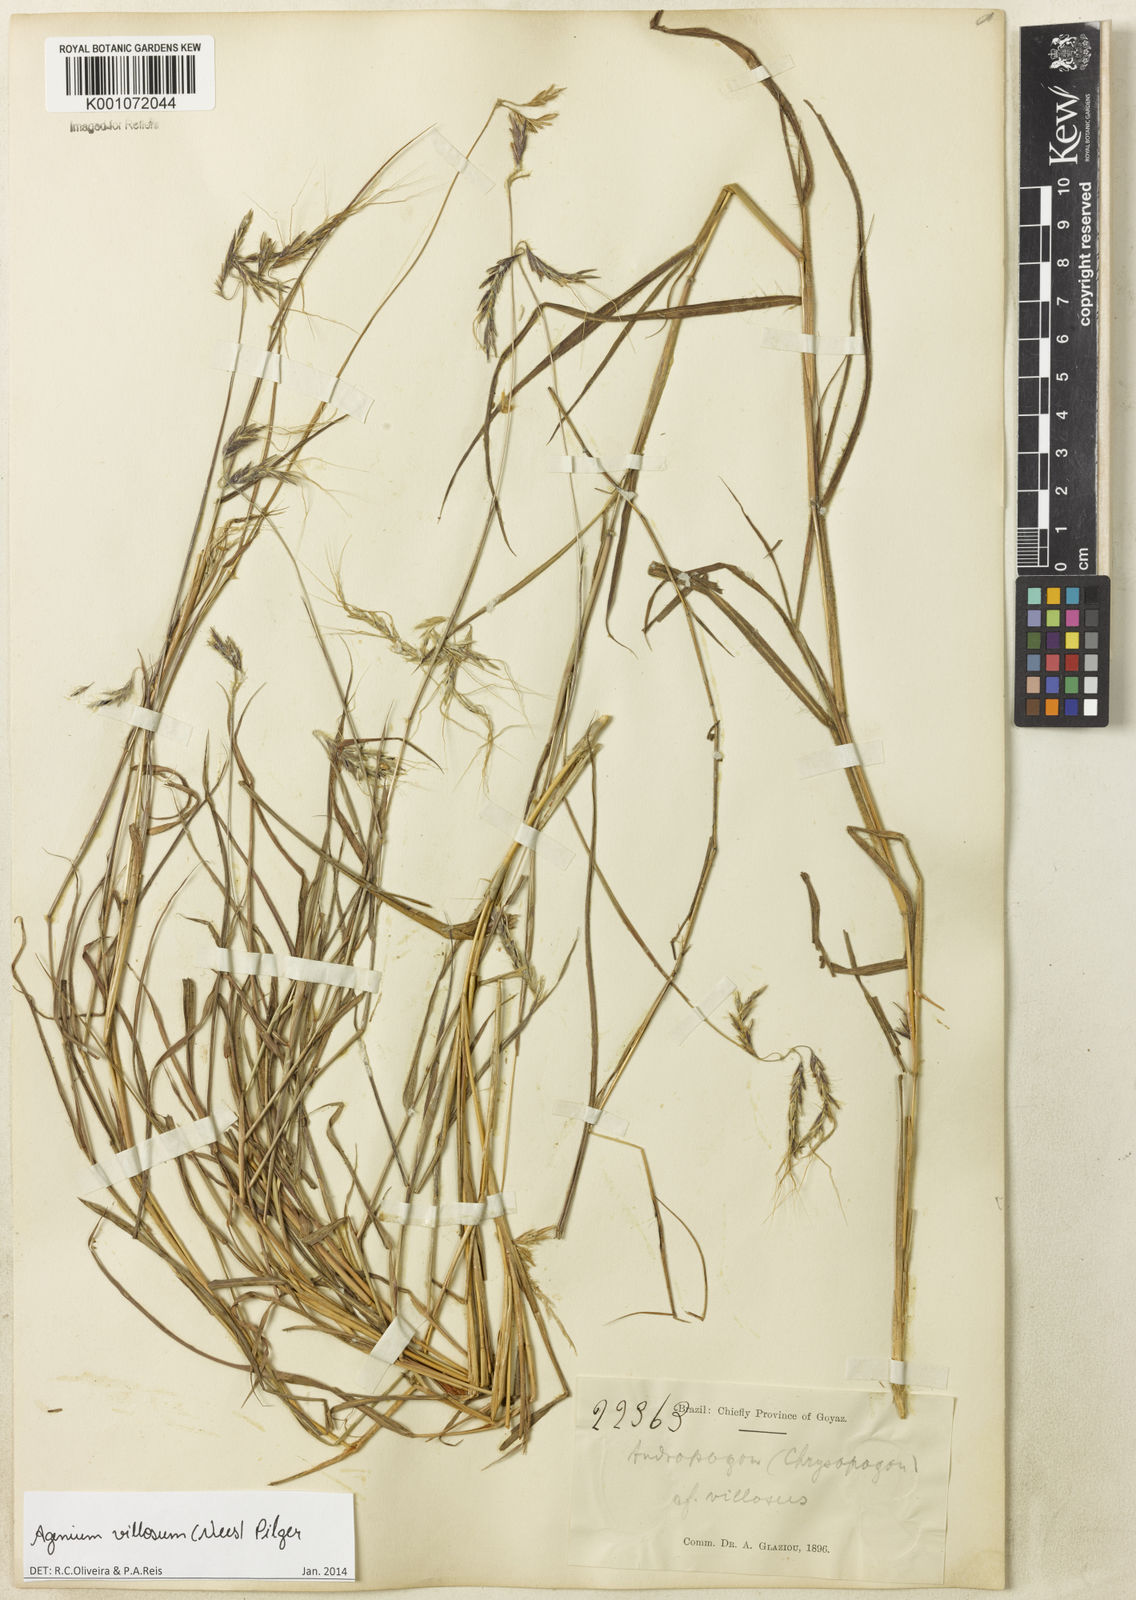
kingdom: Plantae
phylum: Tracheophyta
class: Liliopsida
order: Poales
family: Poaceae
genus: Agenium
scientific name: Agenium villosum
